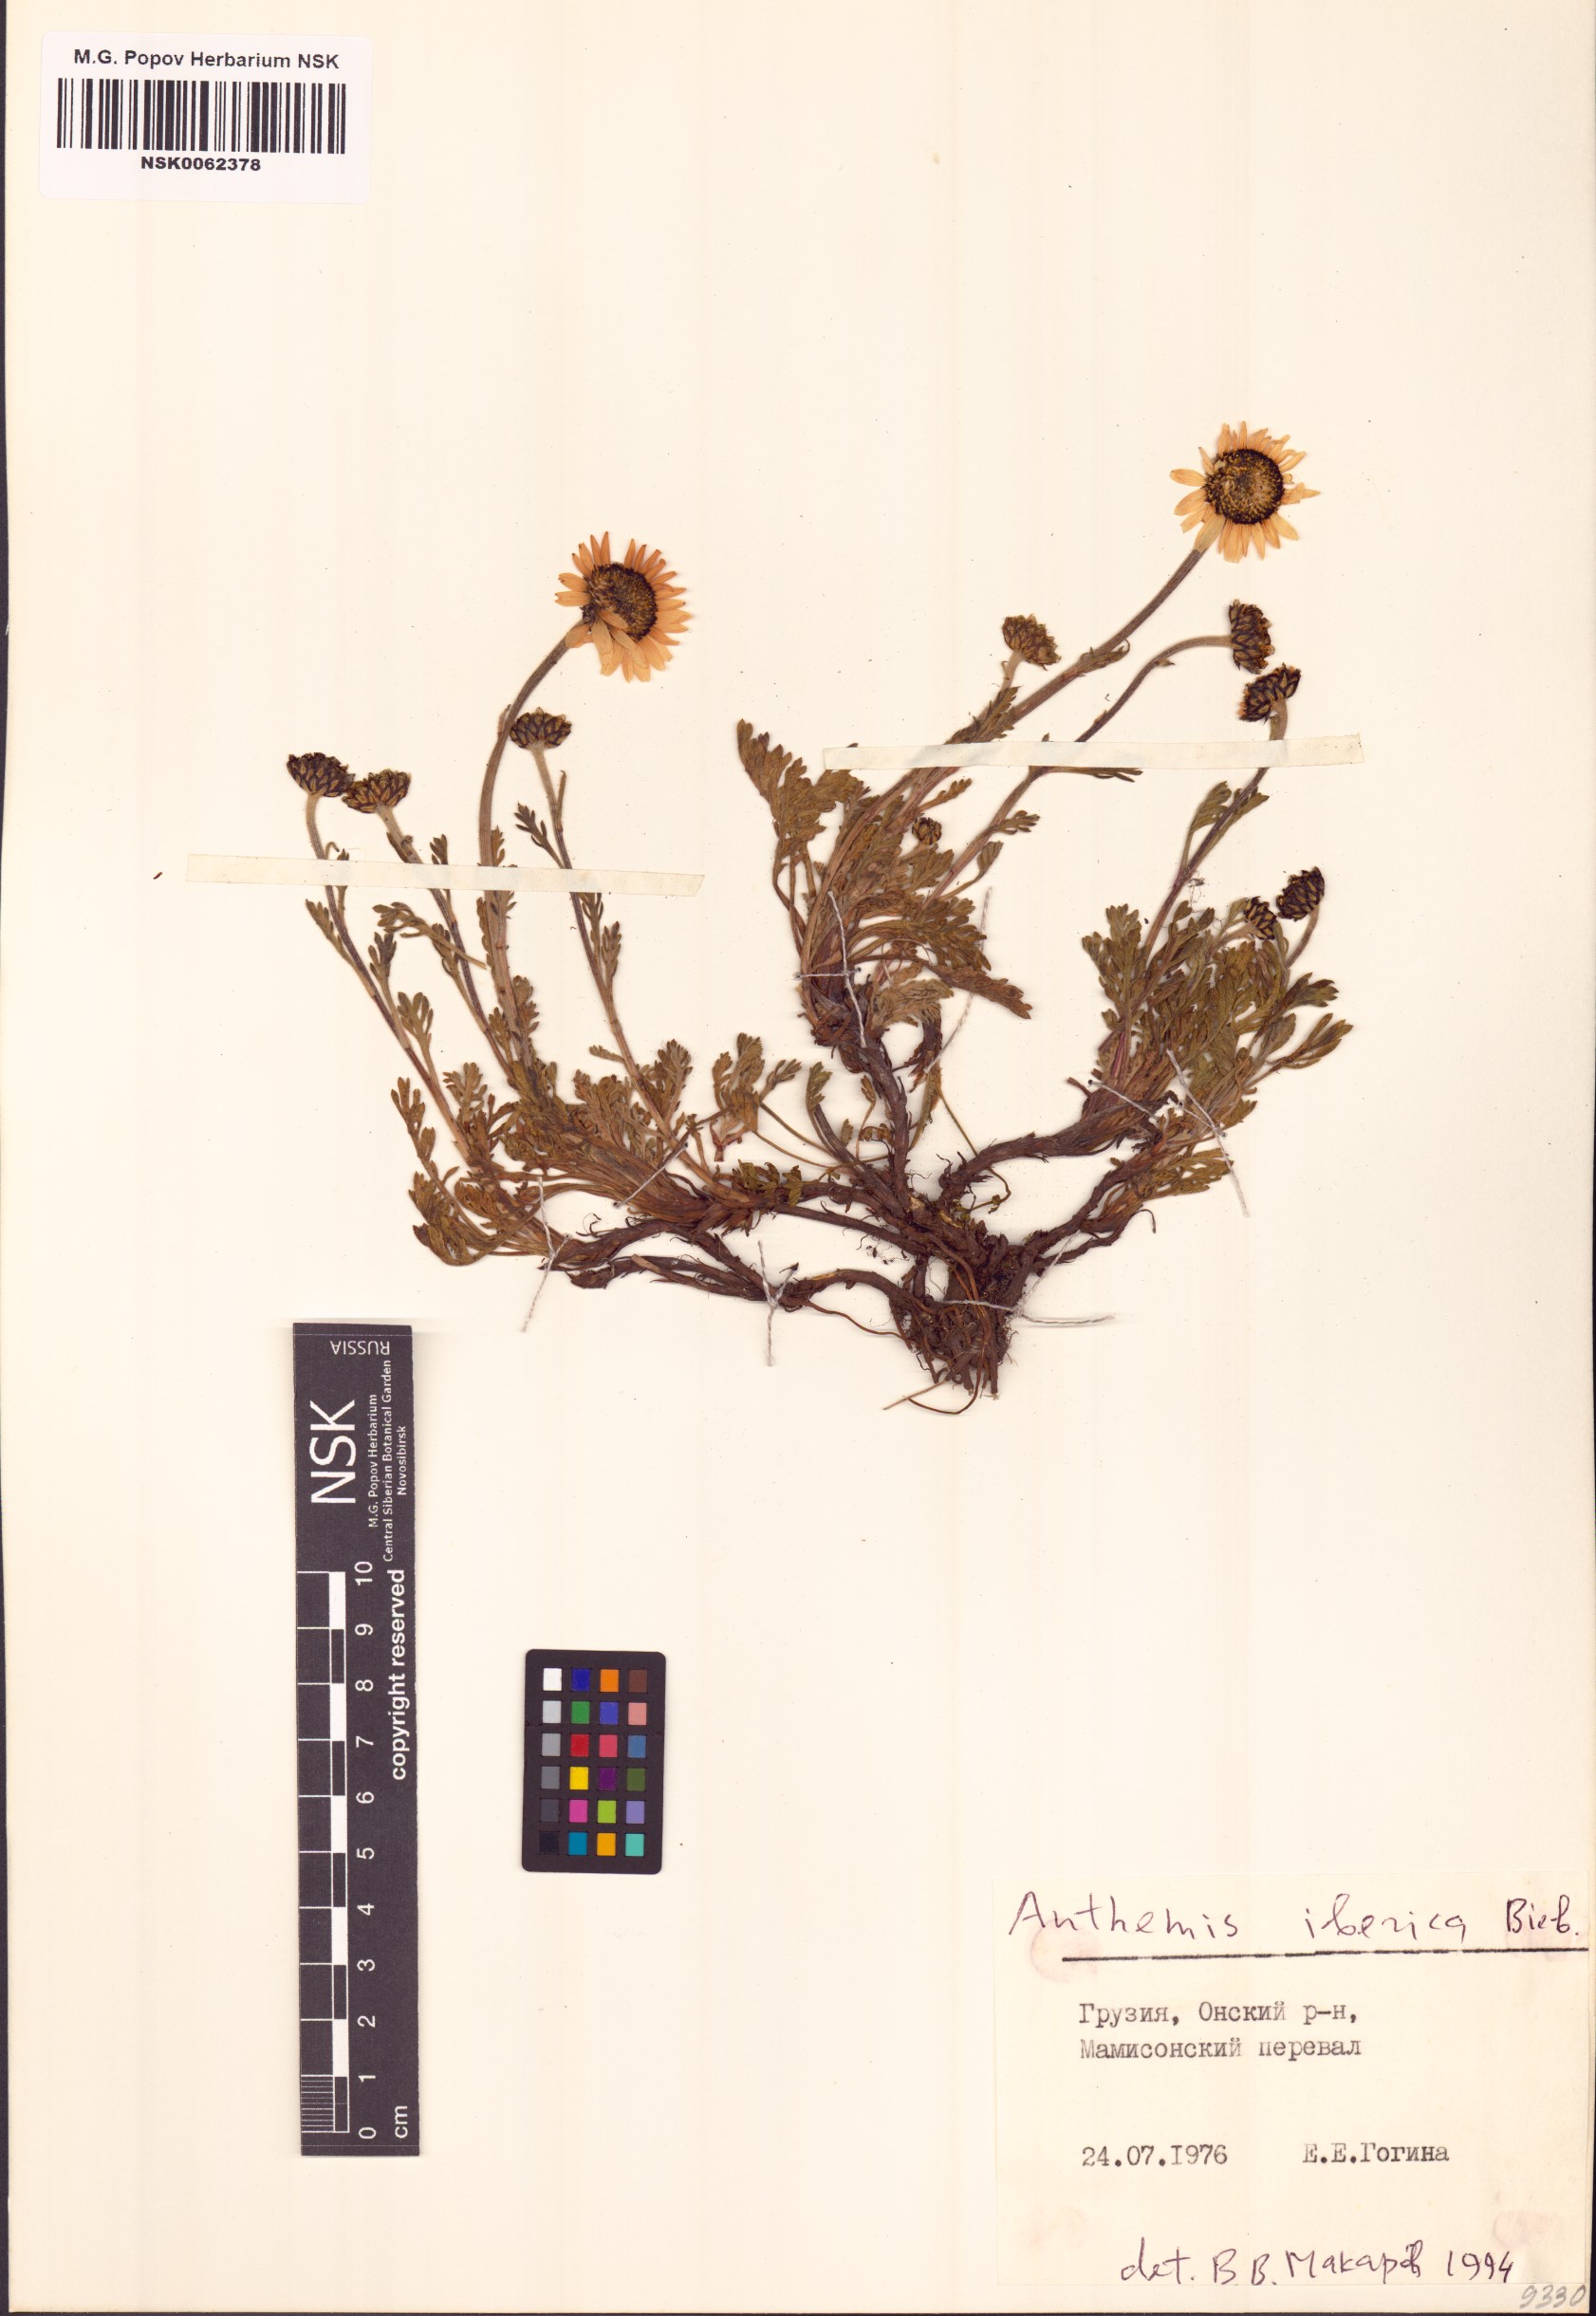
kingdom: Plantae
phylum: Tracheophyta
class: Magnoliopsida
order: Asterales
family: Asteraceae
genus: Anthemis
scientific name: Anthemis cretica
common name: Mountain dog-daisy
